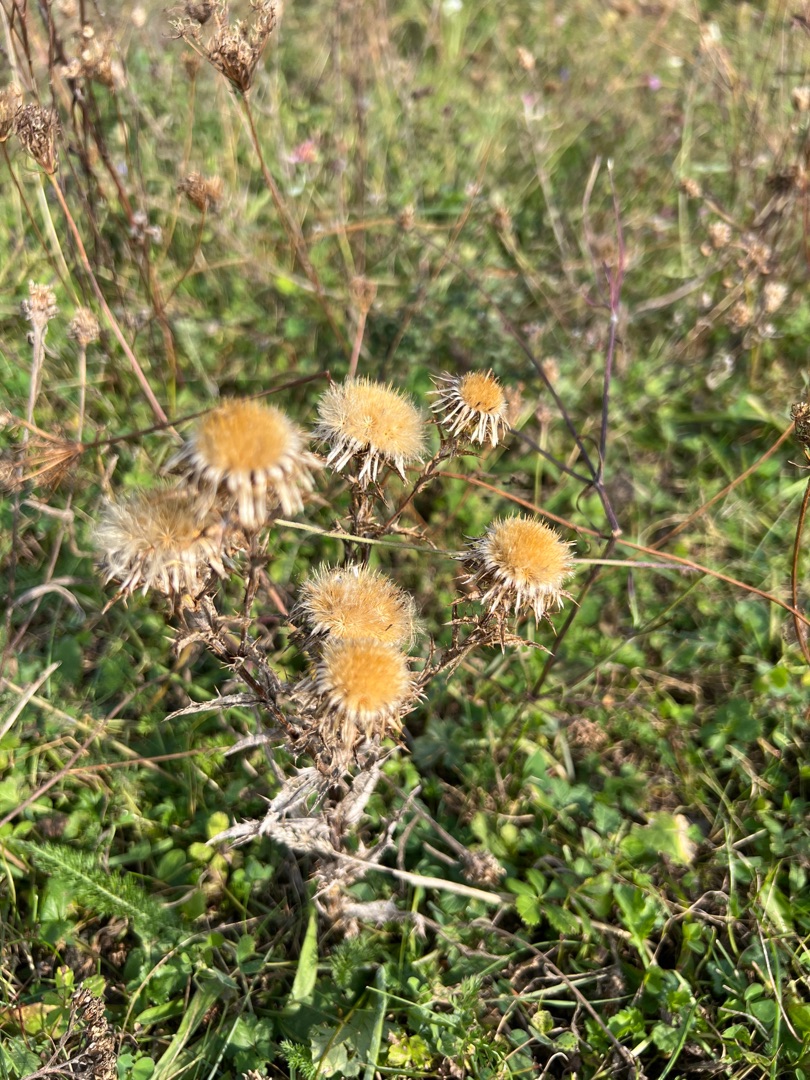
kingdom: Plantae
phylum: Tracheophyta
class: Magnoliopsida
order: Asterales
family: Asteraceae
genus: Carlina
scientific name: Carlina vulgaris
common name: Bakketidsel
